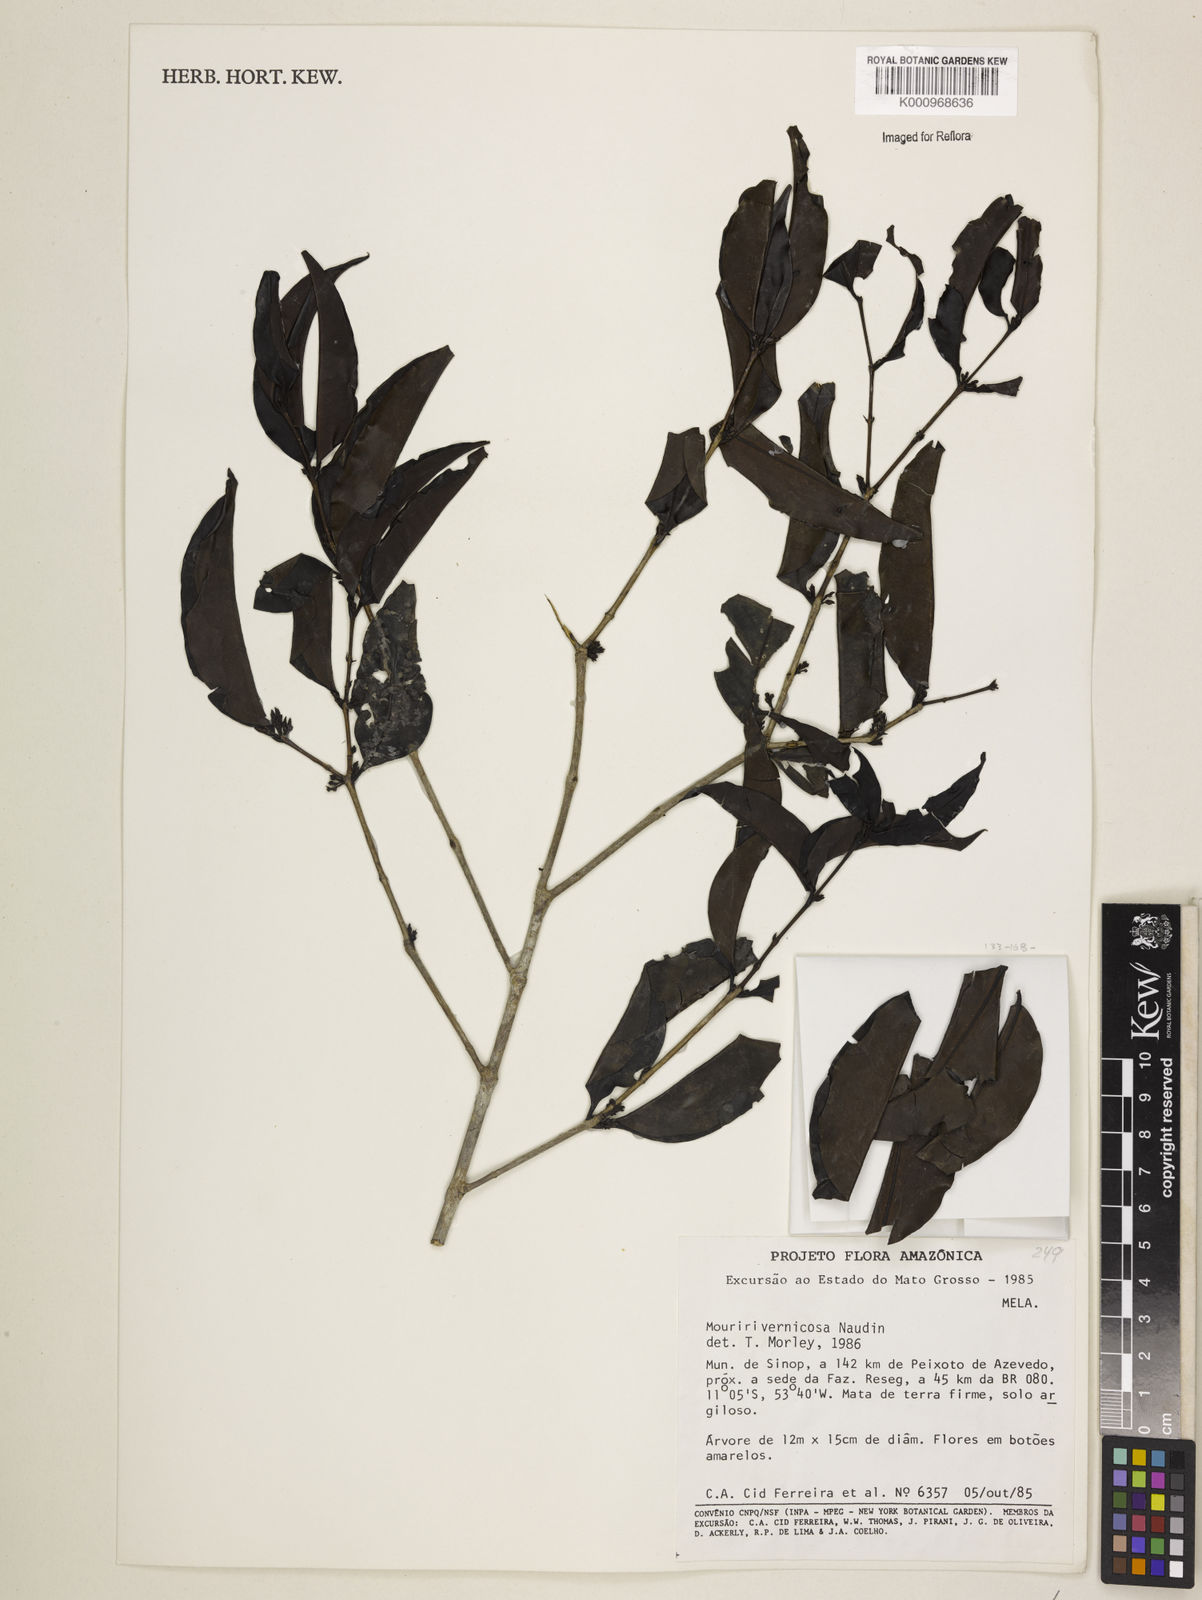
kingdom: Plantae
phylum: Tracheophyta
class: Magnoliopsida
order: Myrtales
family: Melastomataceae
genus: Mouriri
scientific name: Mouriri vernicosa
